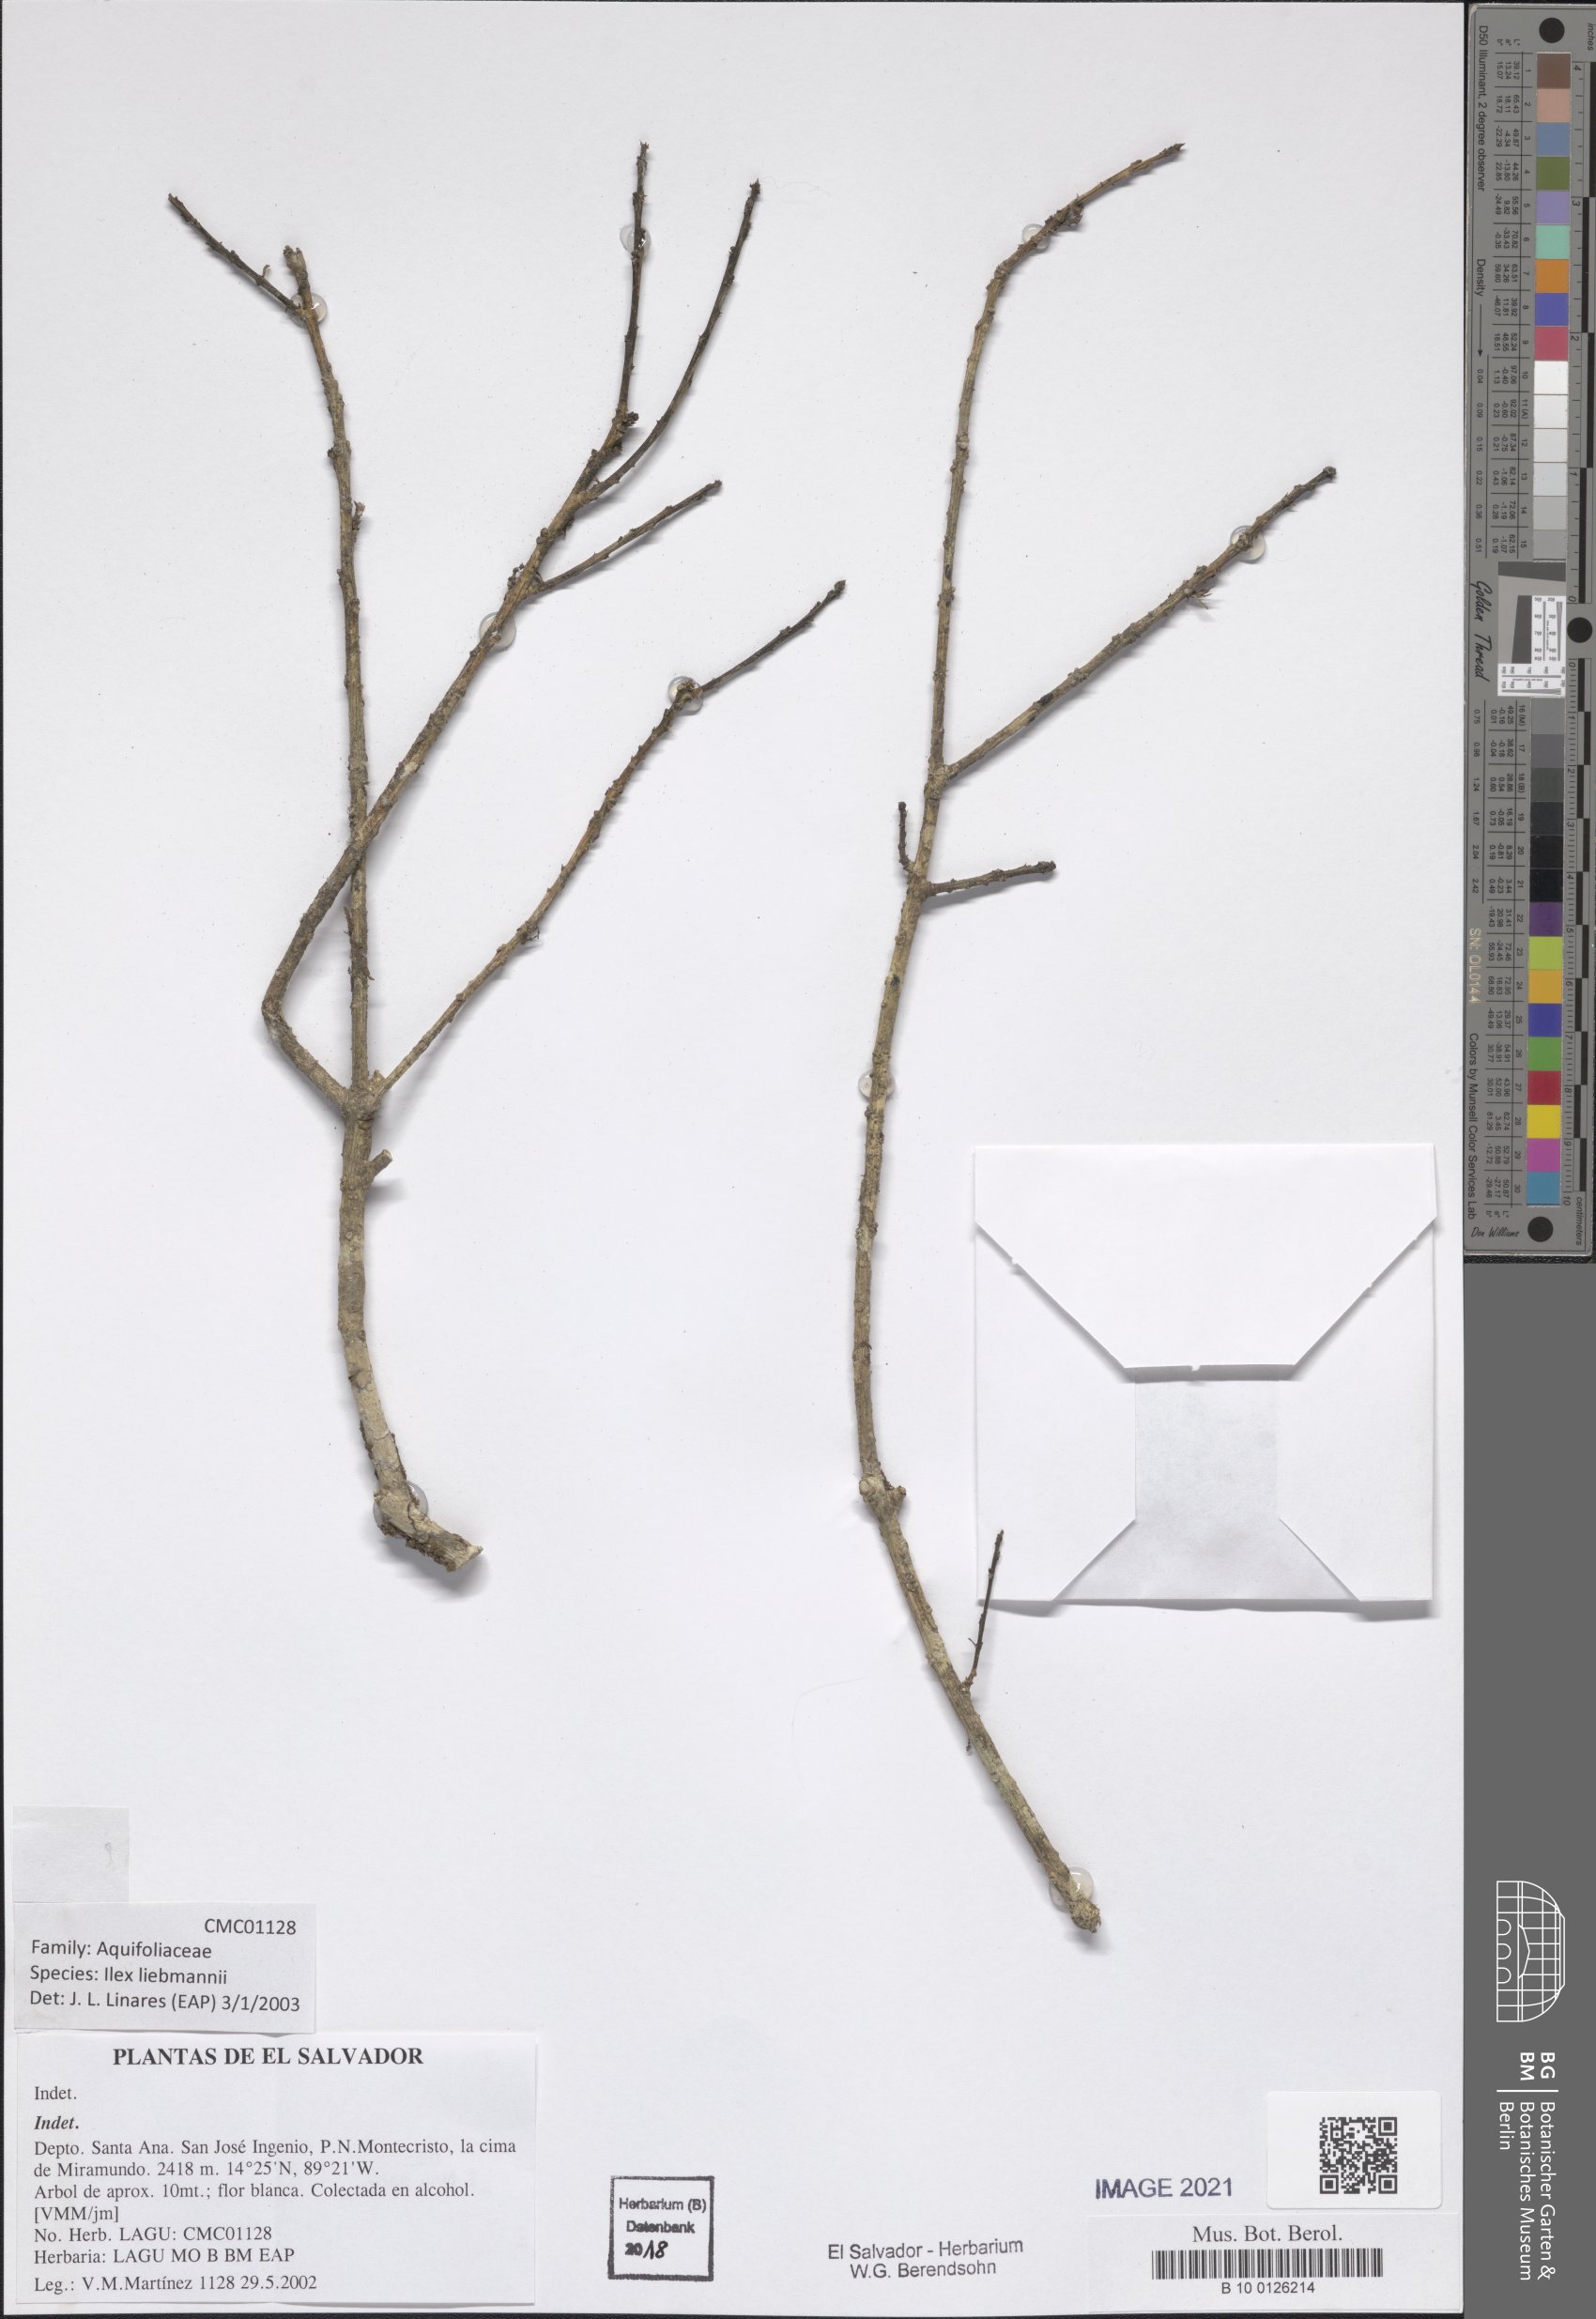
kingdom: Plantae
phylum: Tracheophyta
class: Magnoliopsida
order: Aquifoliales
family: Aquifoliaceae
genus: Ilex
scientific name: Ilex pallida
